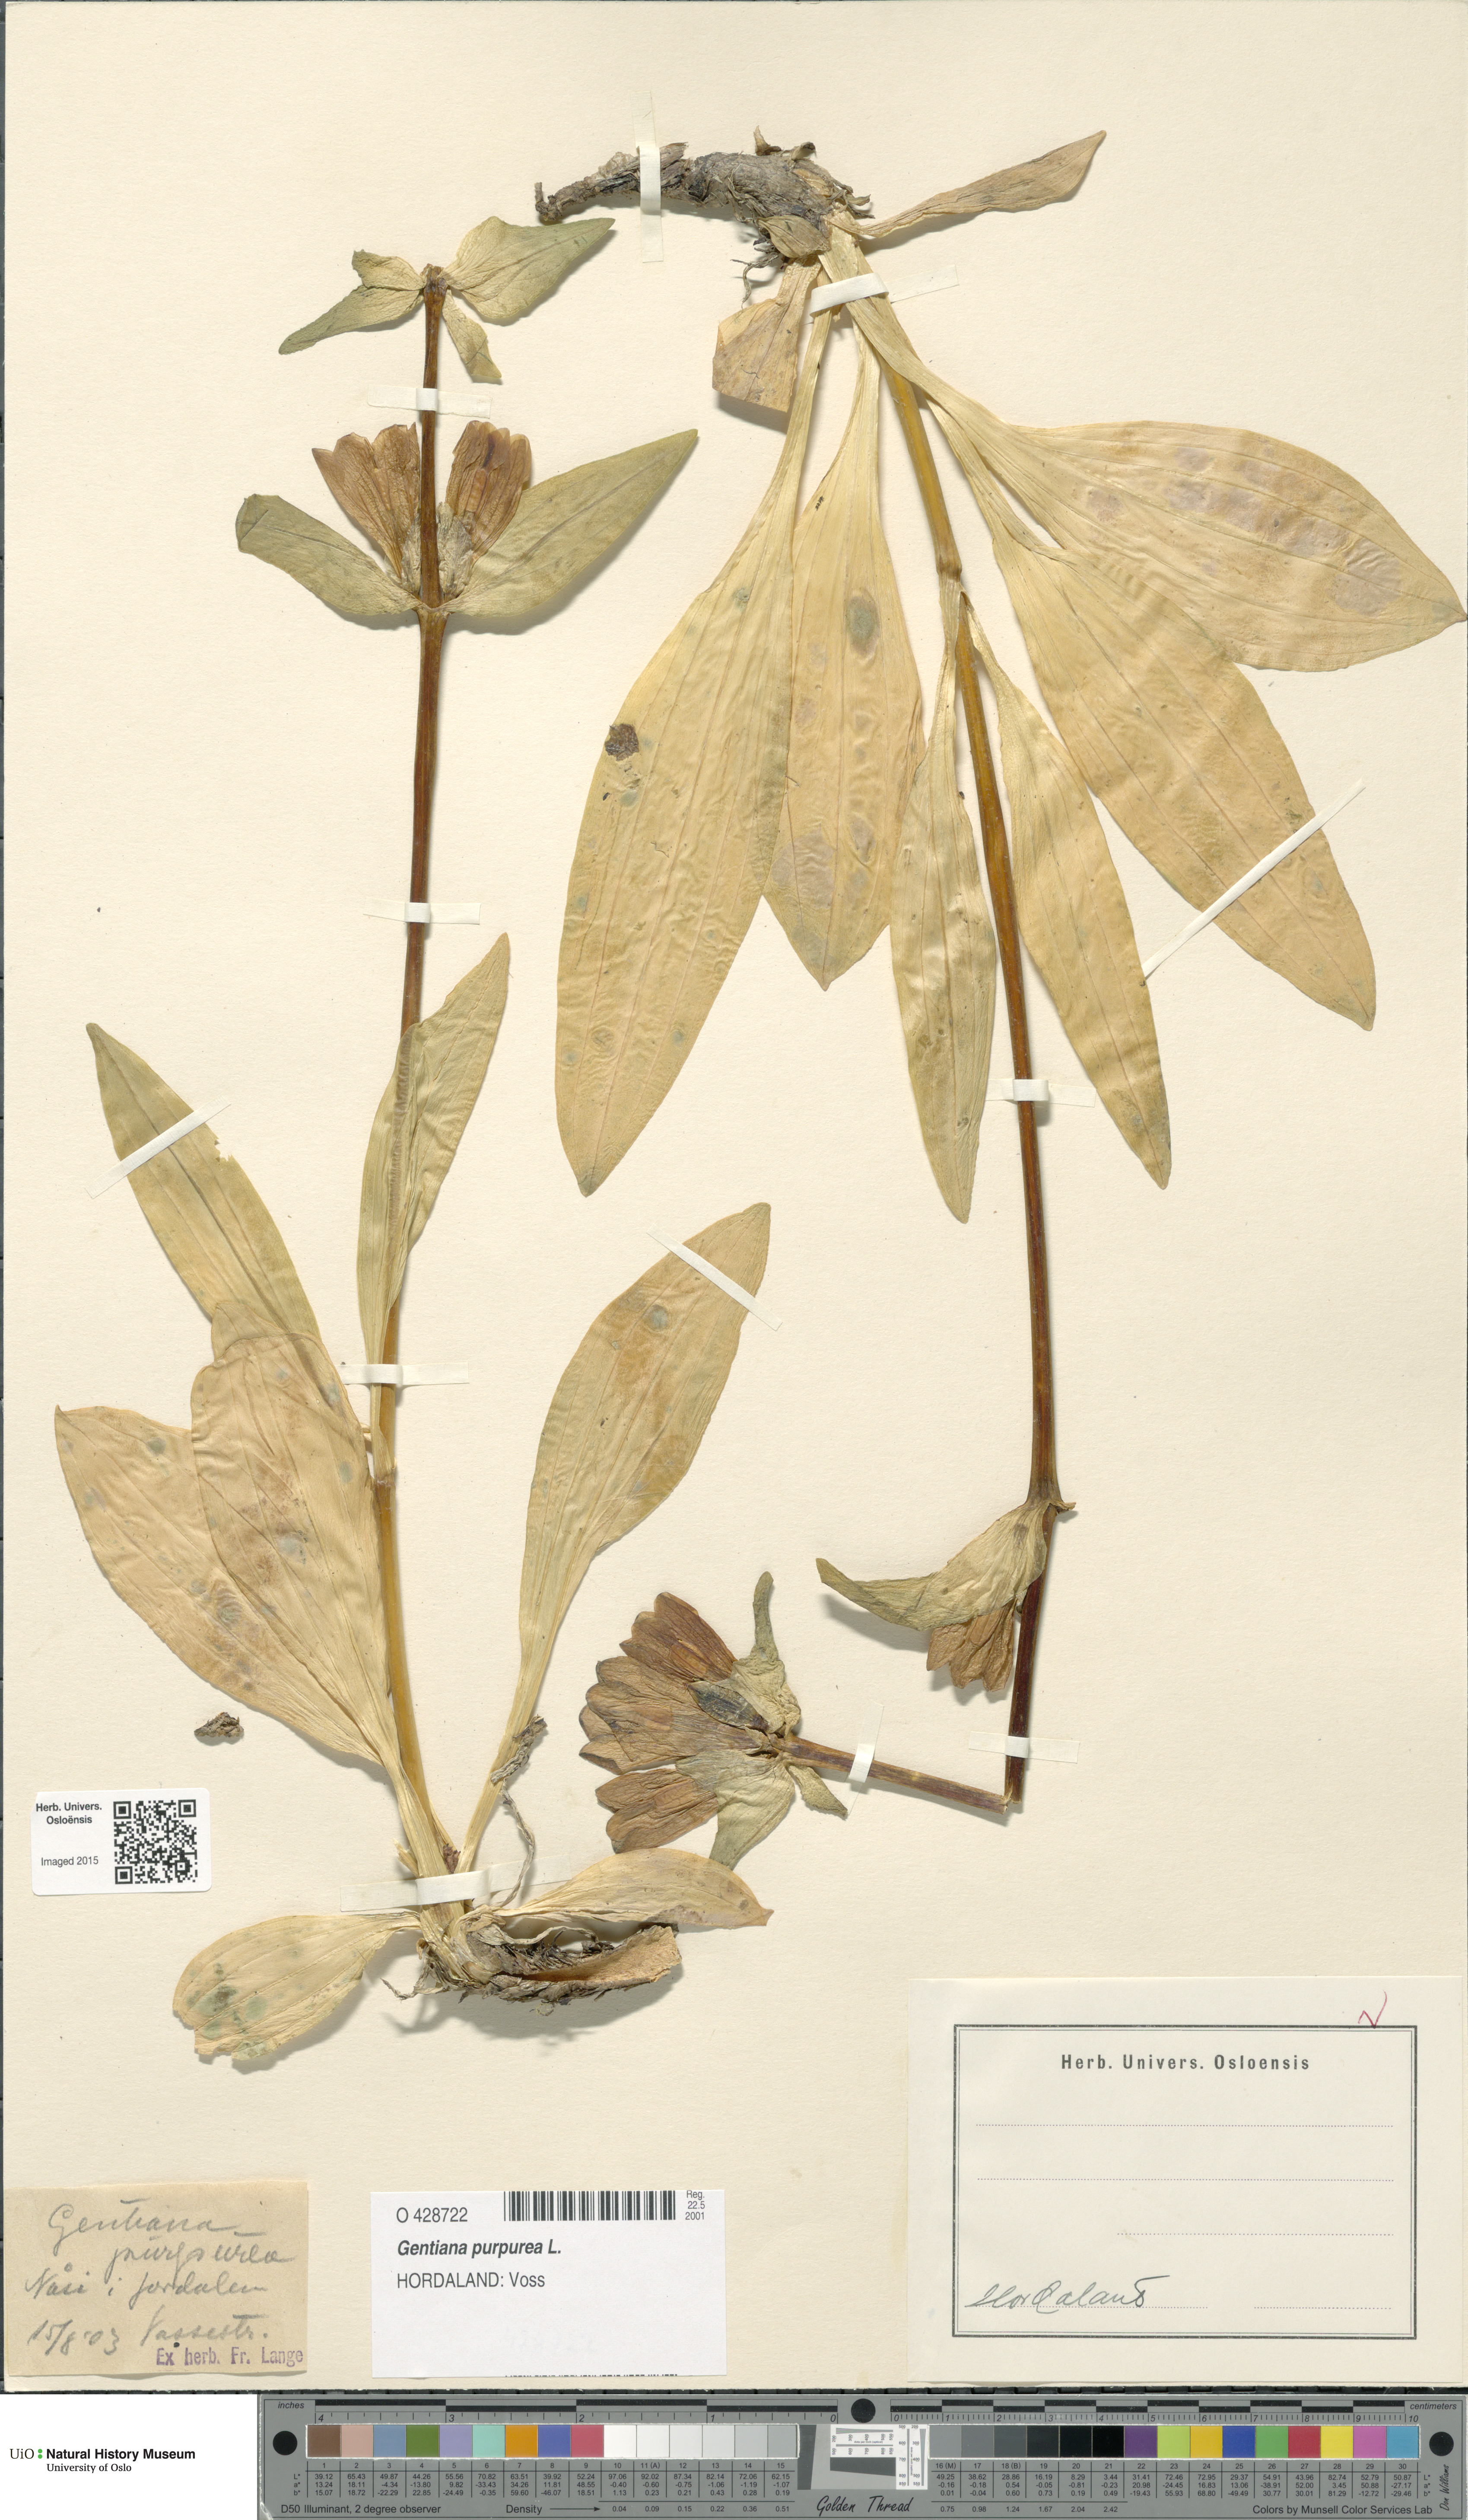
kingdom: Plantae
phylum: Tracheophyta
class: Magnoliopsida
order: Gentianales
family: Gentianaceae
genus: Gentiana
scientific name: Gentiana purpurea
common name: Purple gentian
